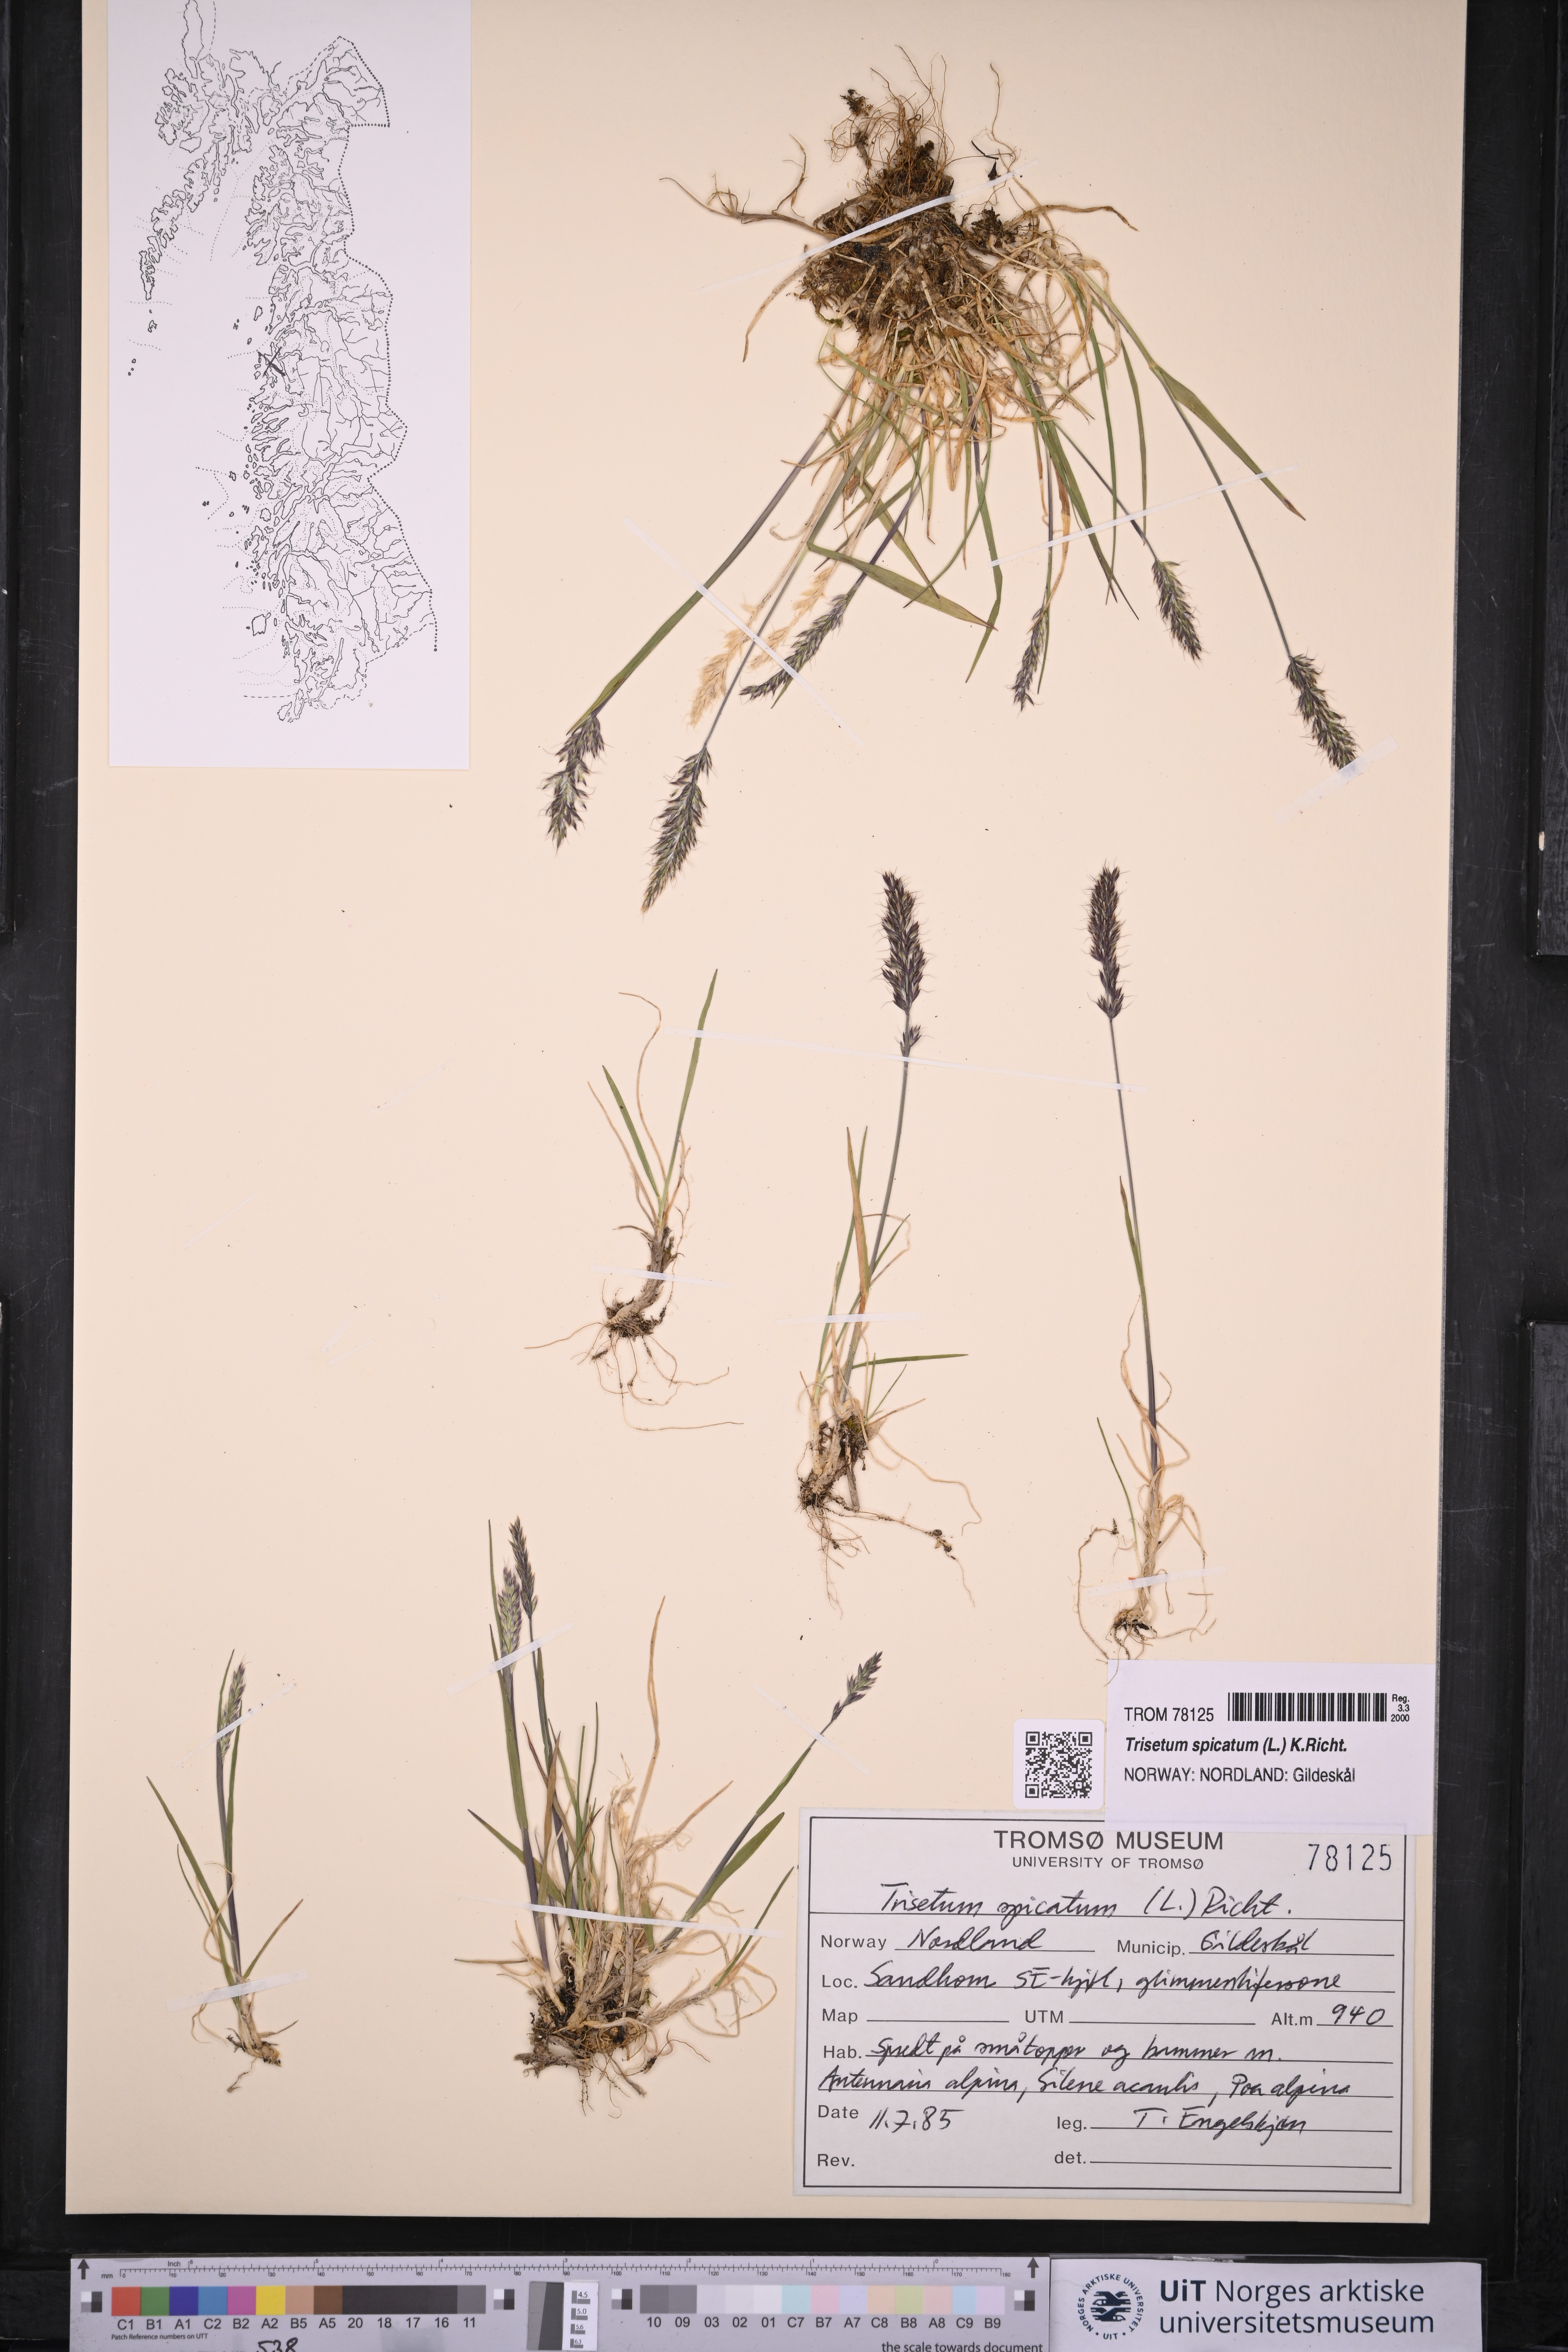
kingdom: Plantae
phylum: Tracheophyta
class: Liliopsida
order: Poales
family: Poaceae
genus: Koeleria
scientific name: Koeleria spicata
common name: Mountain trisetum
